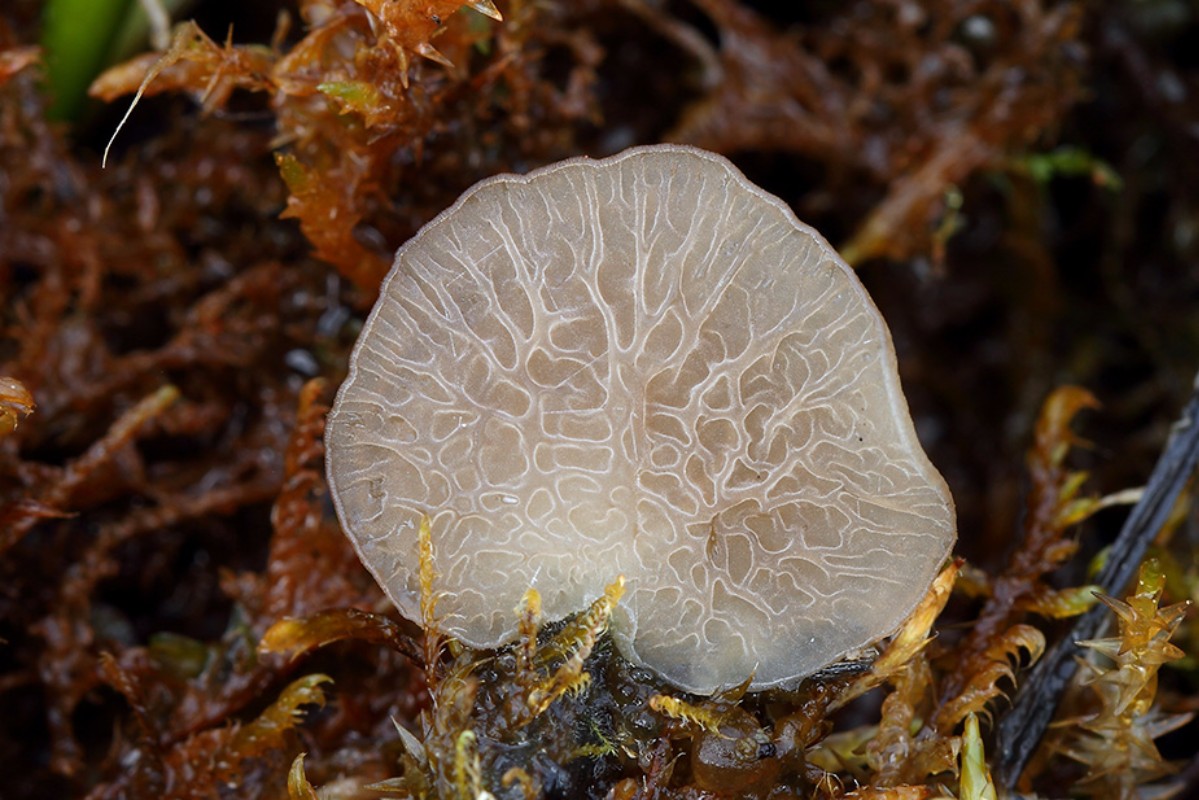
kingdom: Fungi
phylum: Basidiomycota
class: Agaricomycetes
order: Agaricales
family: Hygrophoraceae
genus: Arrhenia
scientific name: Arrhenia lobata
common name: siddende fontænehat
